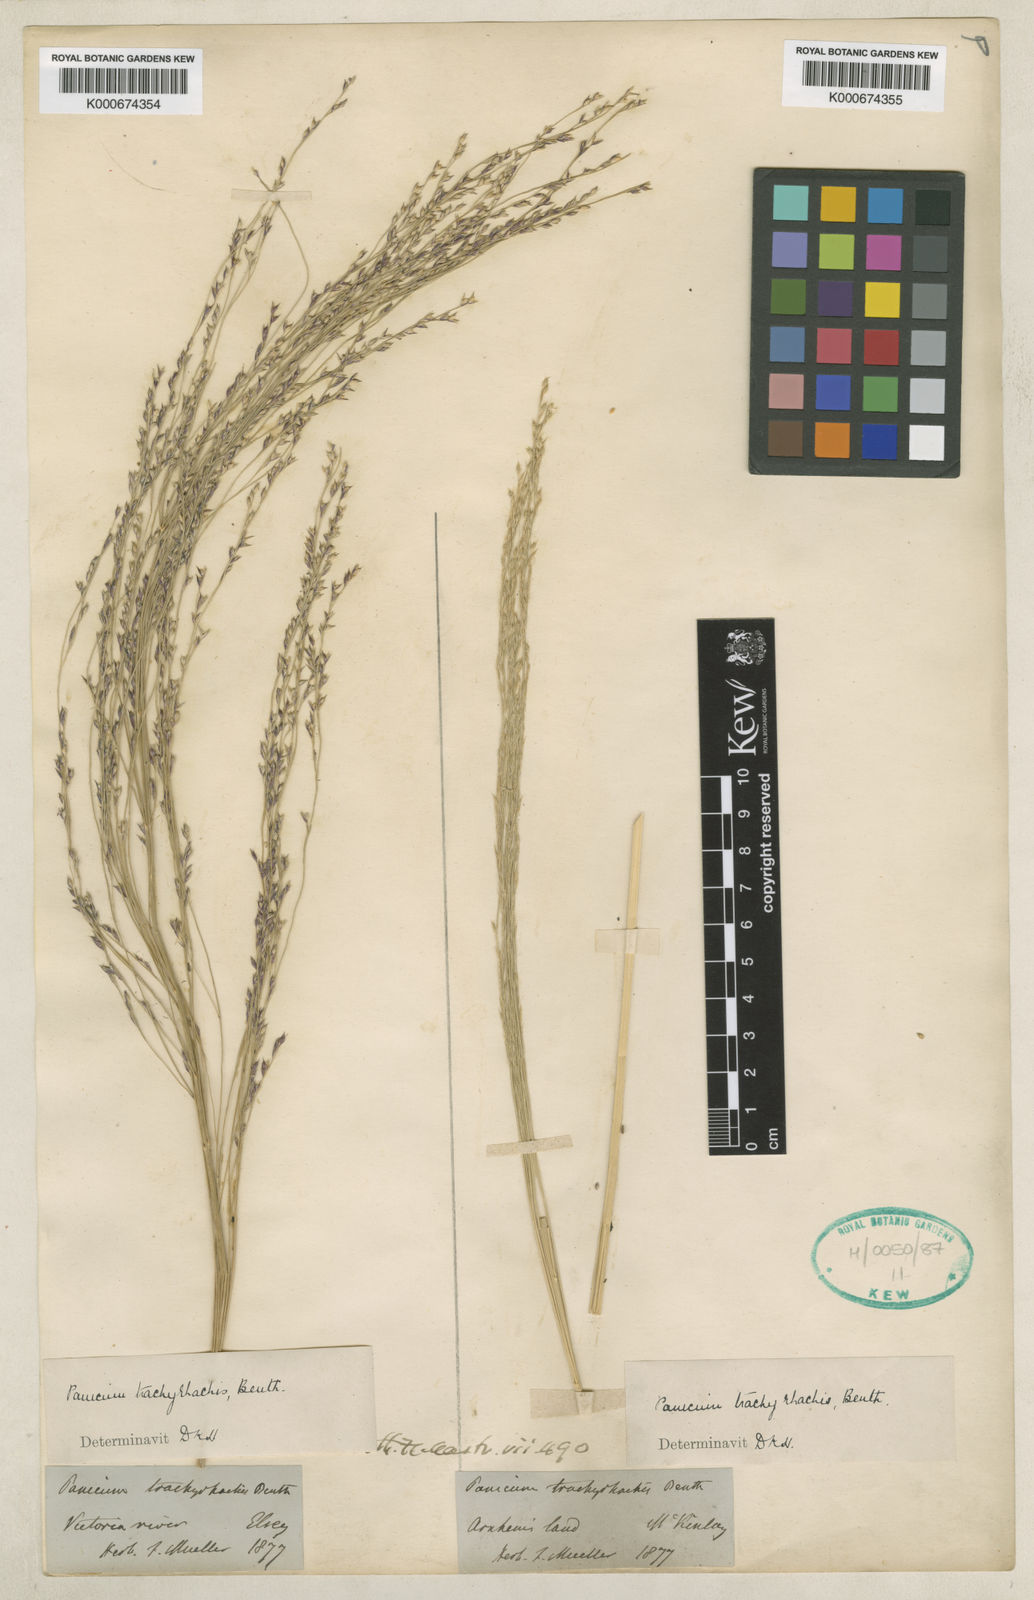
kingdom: Plantae
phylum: Tracheophyta
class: Liliopsida
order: Poales
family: Poaceae
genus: Panicum
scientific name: Panicum trachyrhachis
